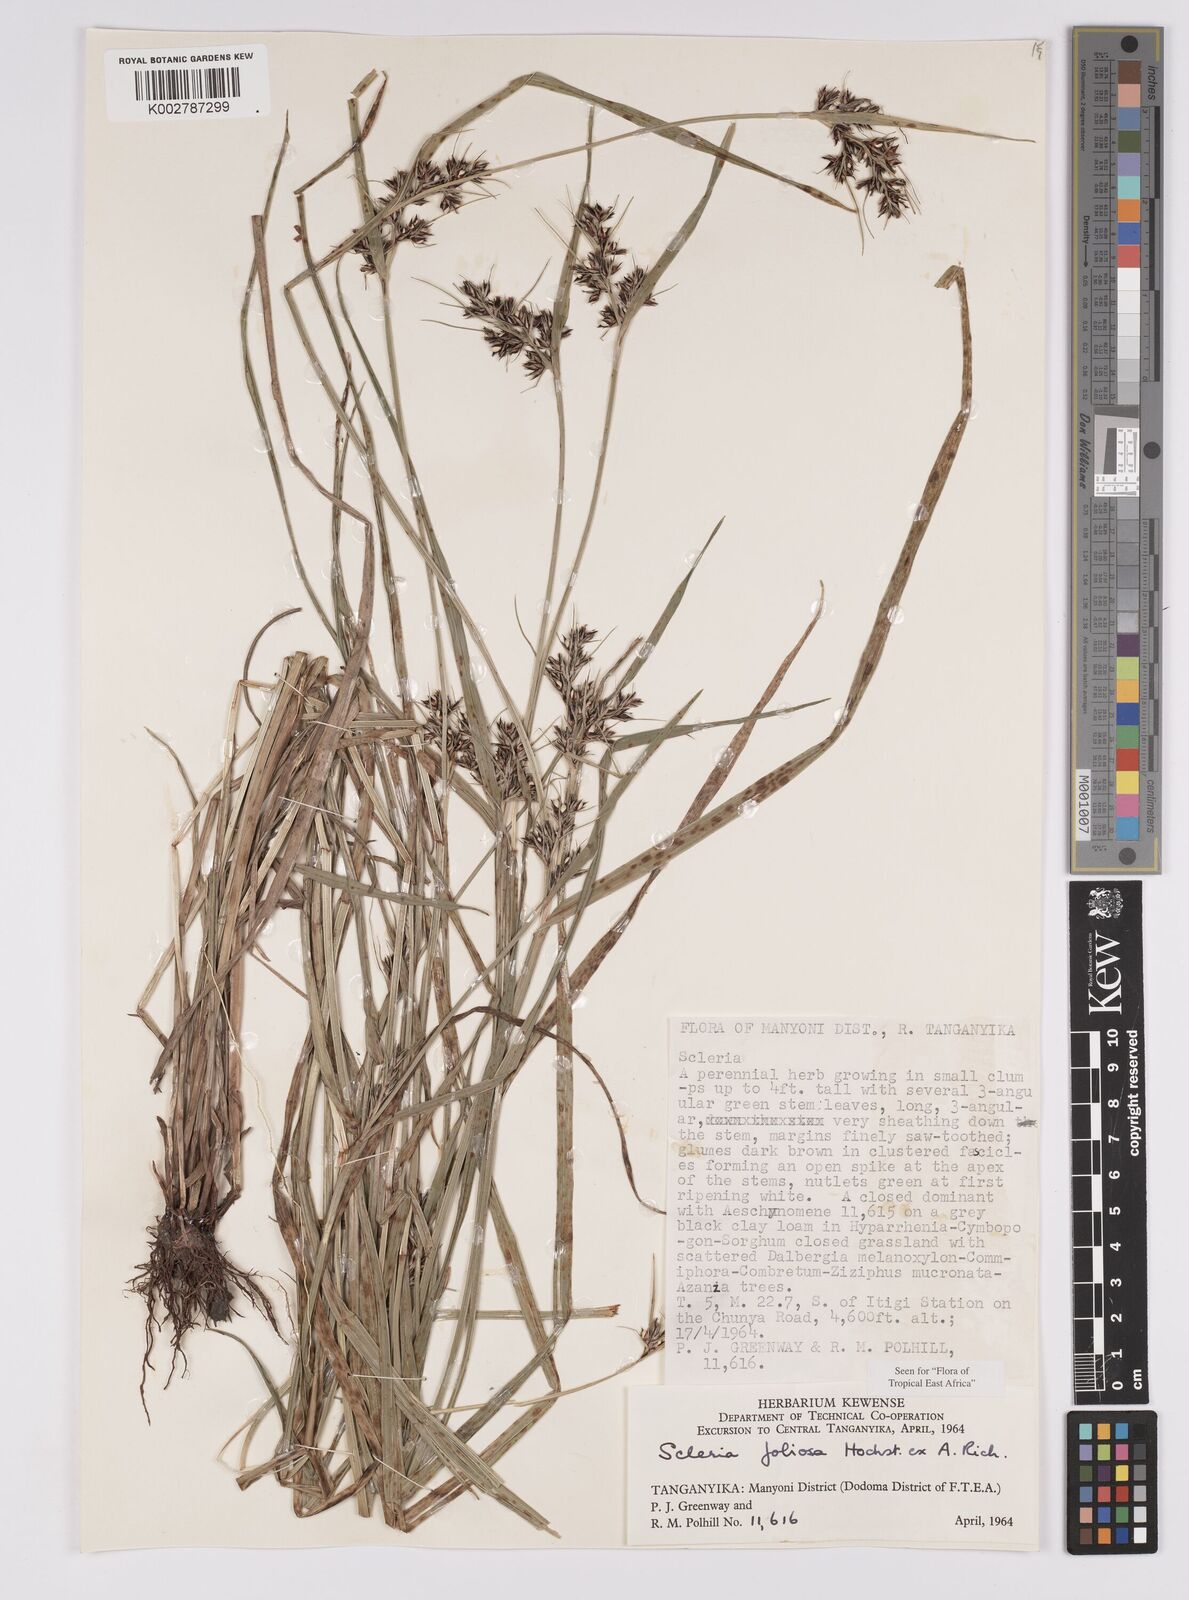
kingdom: Plantae
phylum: Tracheophyta
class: Liliopsida
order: Poales
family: Cyperaceae
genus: Scleria
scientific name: Scleria foliosa
